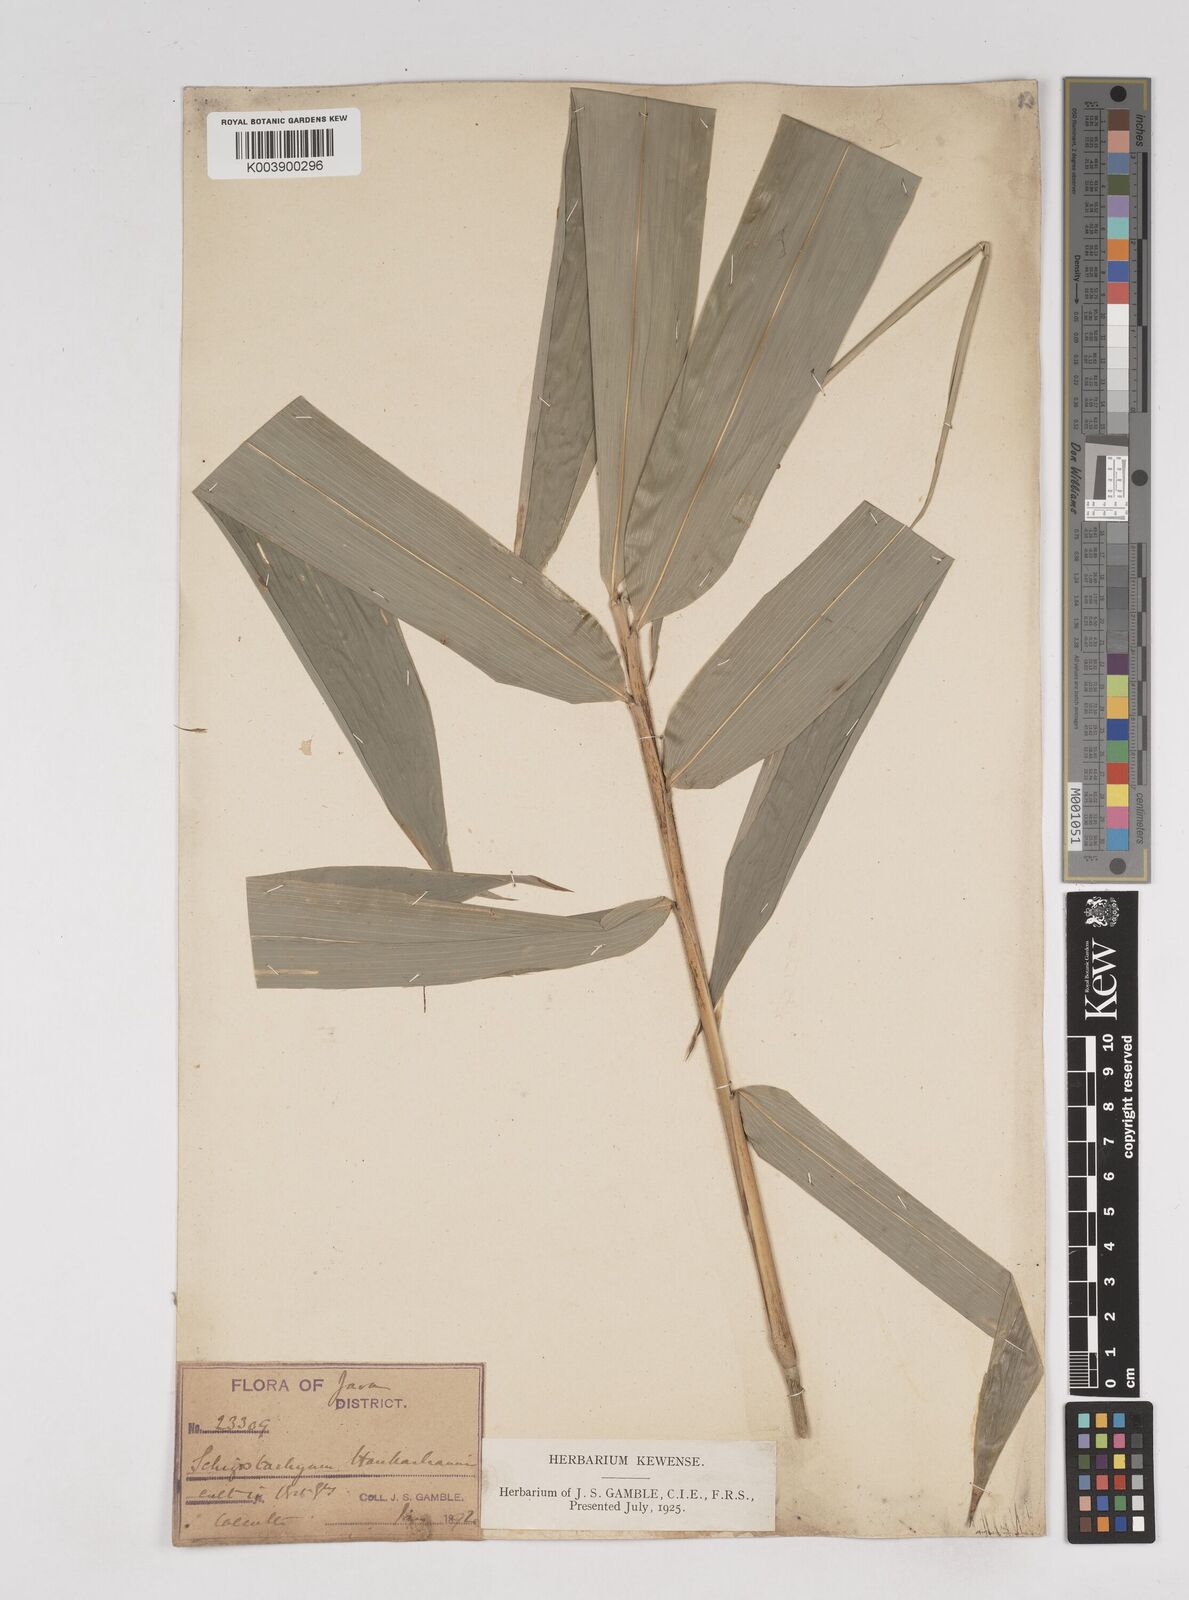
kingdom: Plantae
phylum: Tracheophyta
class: Liliopsida
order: Poales
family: Poaceae
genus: Gigantochloa
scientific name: Gigantochloa hasskarliana
